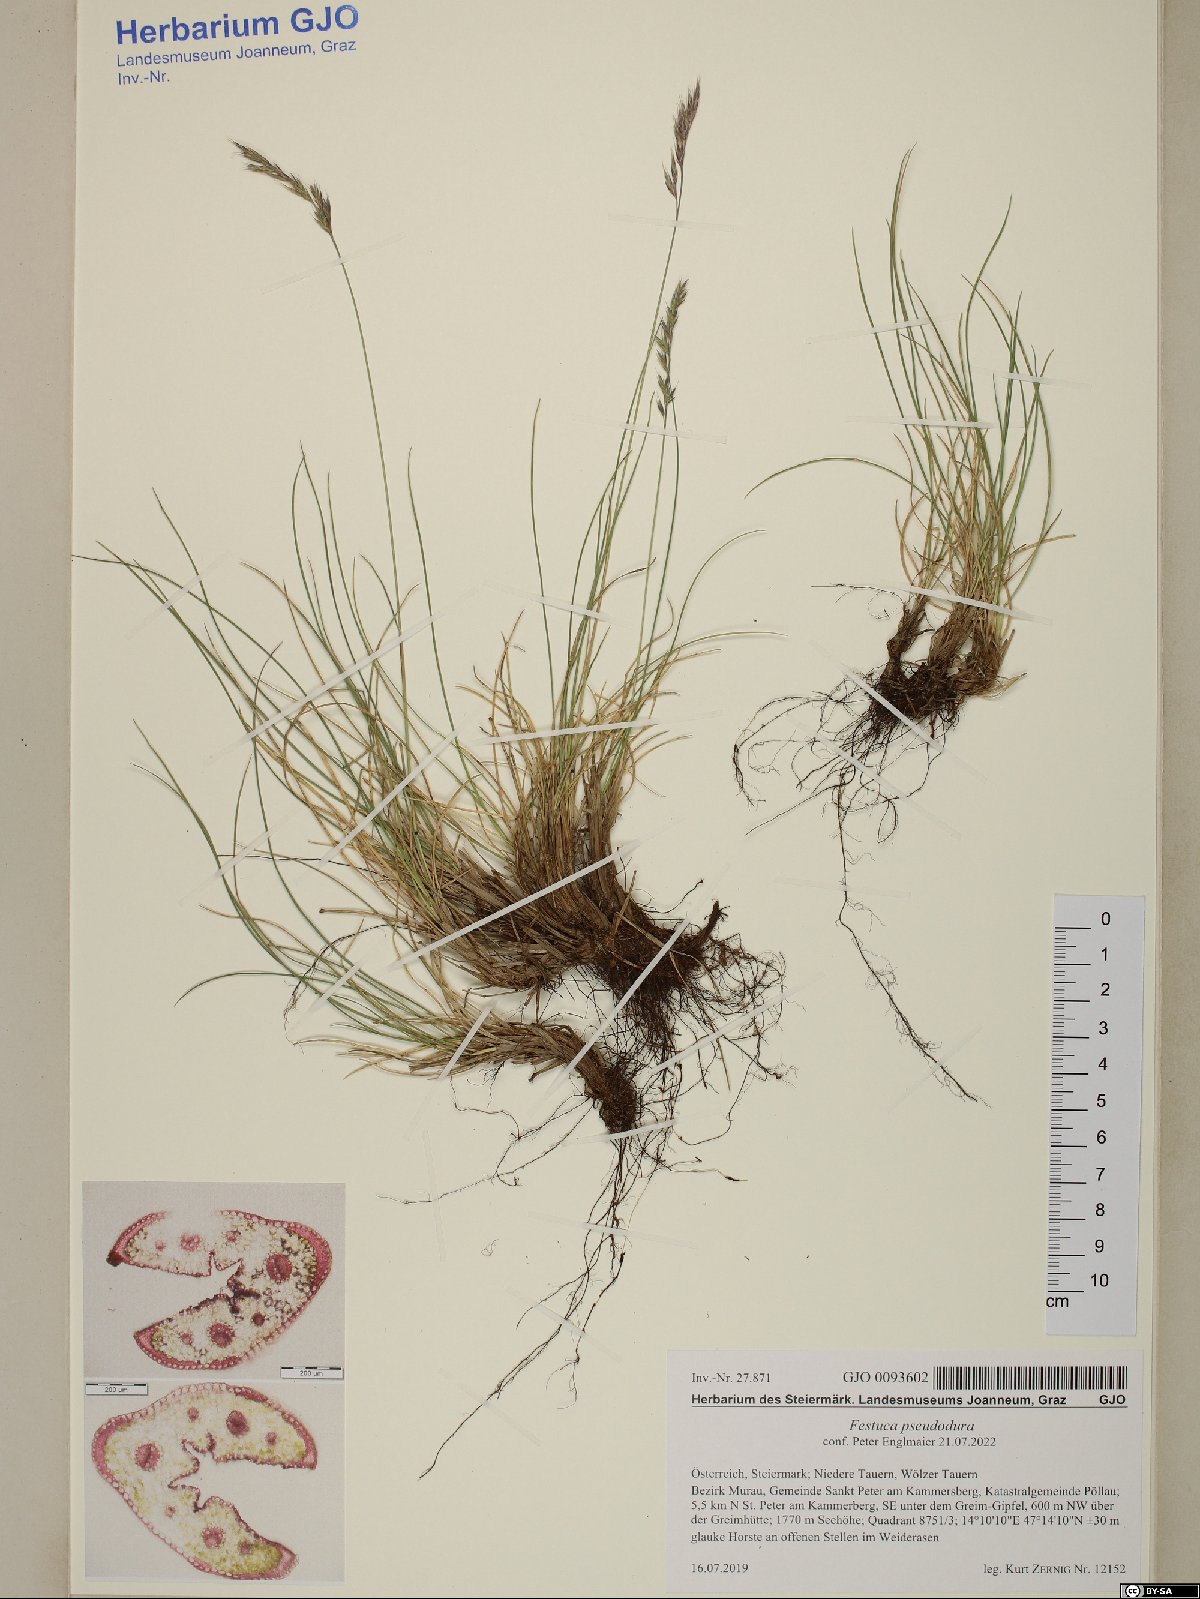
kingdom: Plantae
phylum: Tracheophyta
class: Liliopsida
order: Poales
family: Poaceae
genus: Festuca
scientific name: Festuca pseudodura
